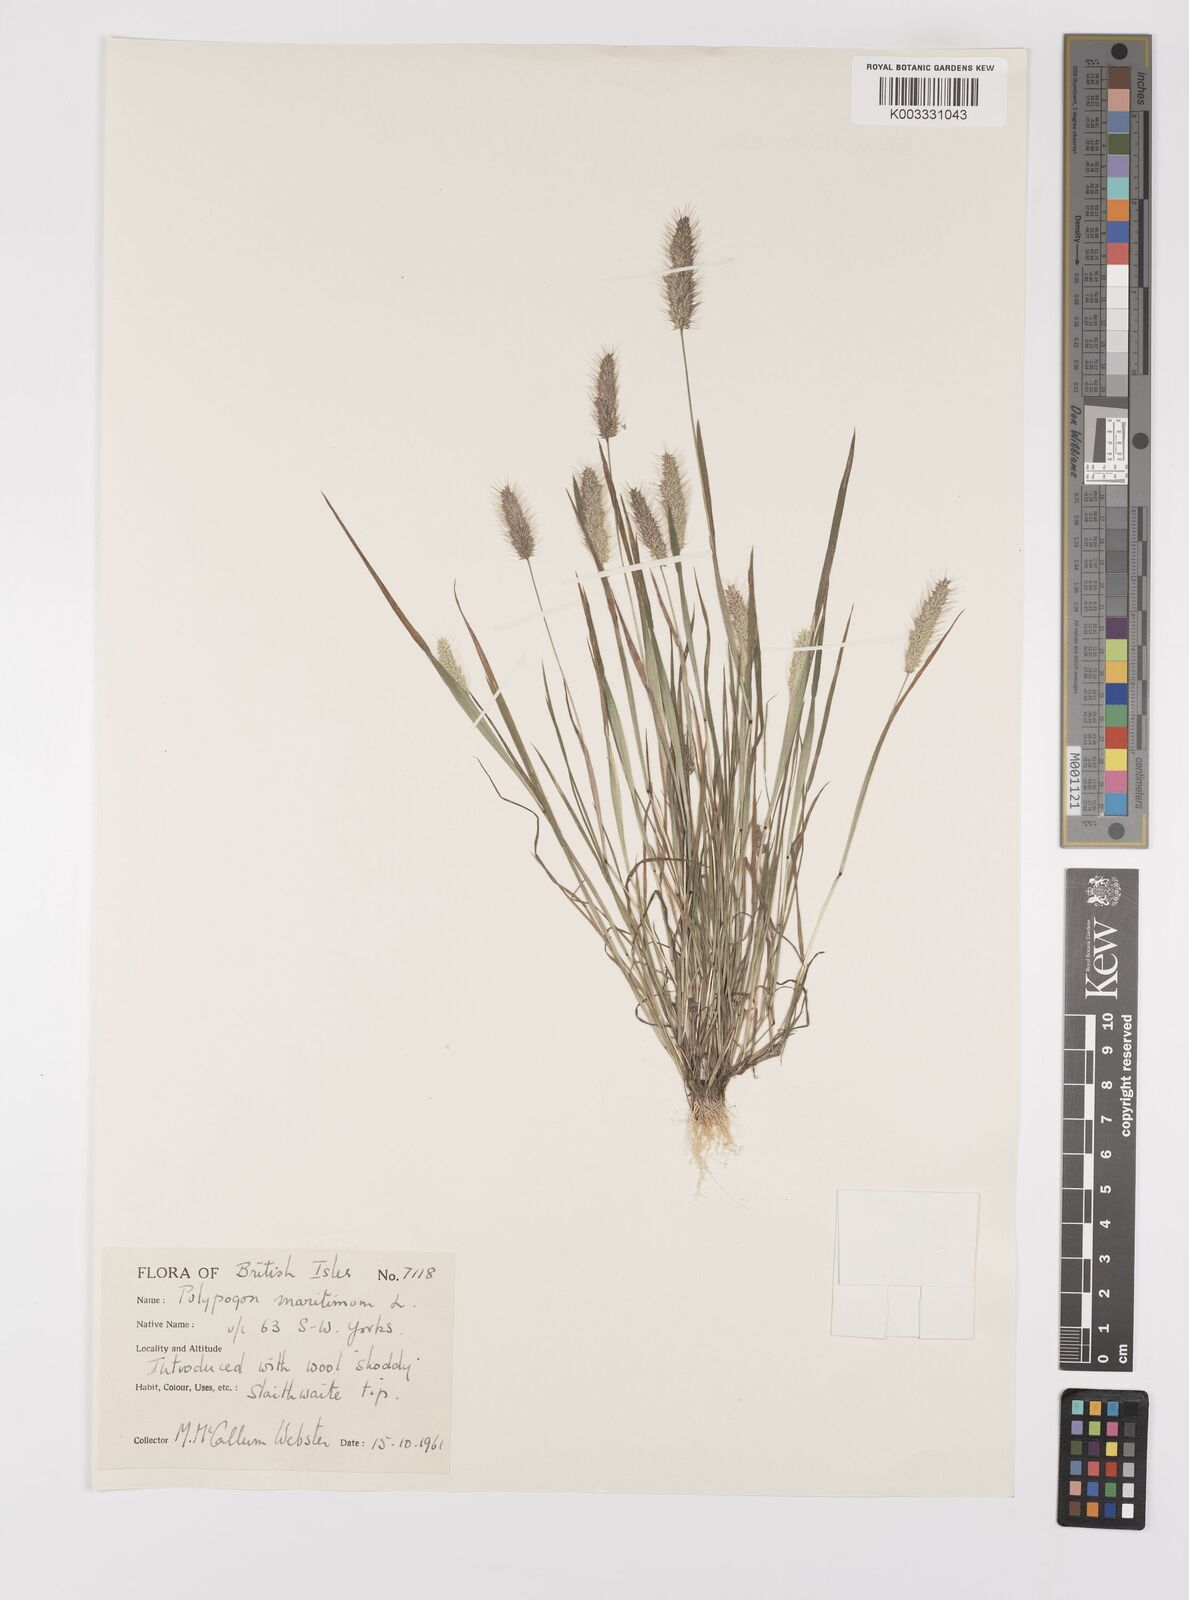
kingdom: Plantae
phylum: Tracheophyta
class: Liliopsida
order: Poales
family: Poaceae
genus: Polypogon
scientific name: Polypogon monspeliensis
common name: Annual rabbitsfoot grass
